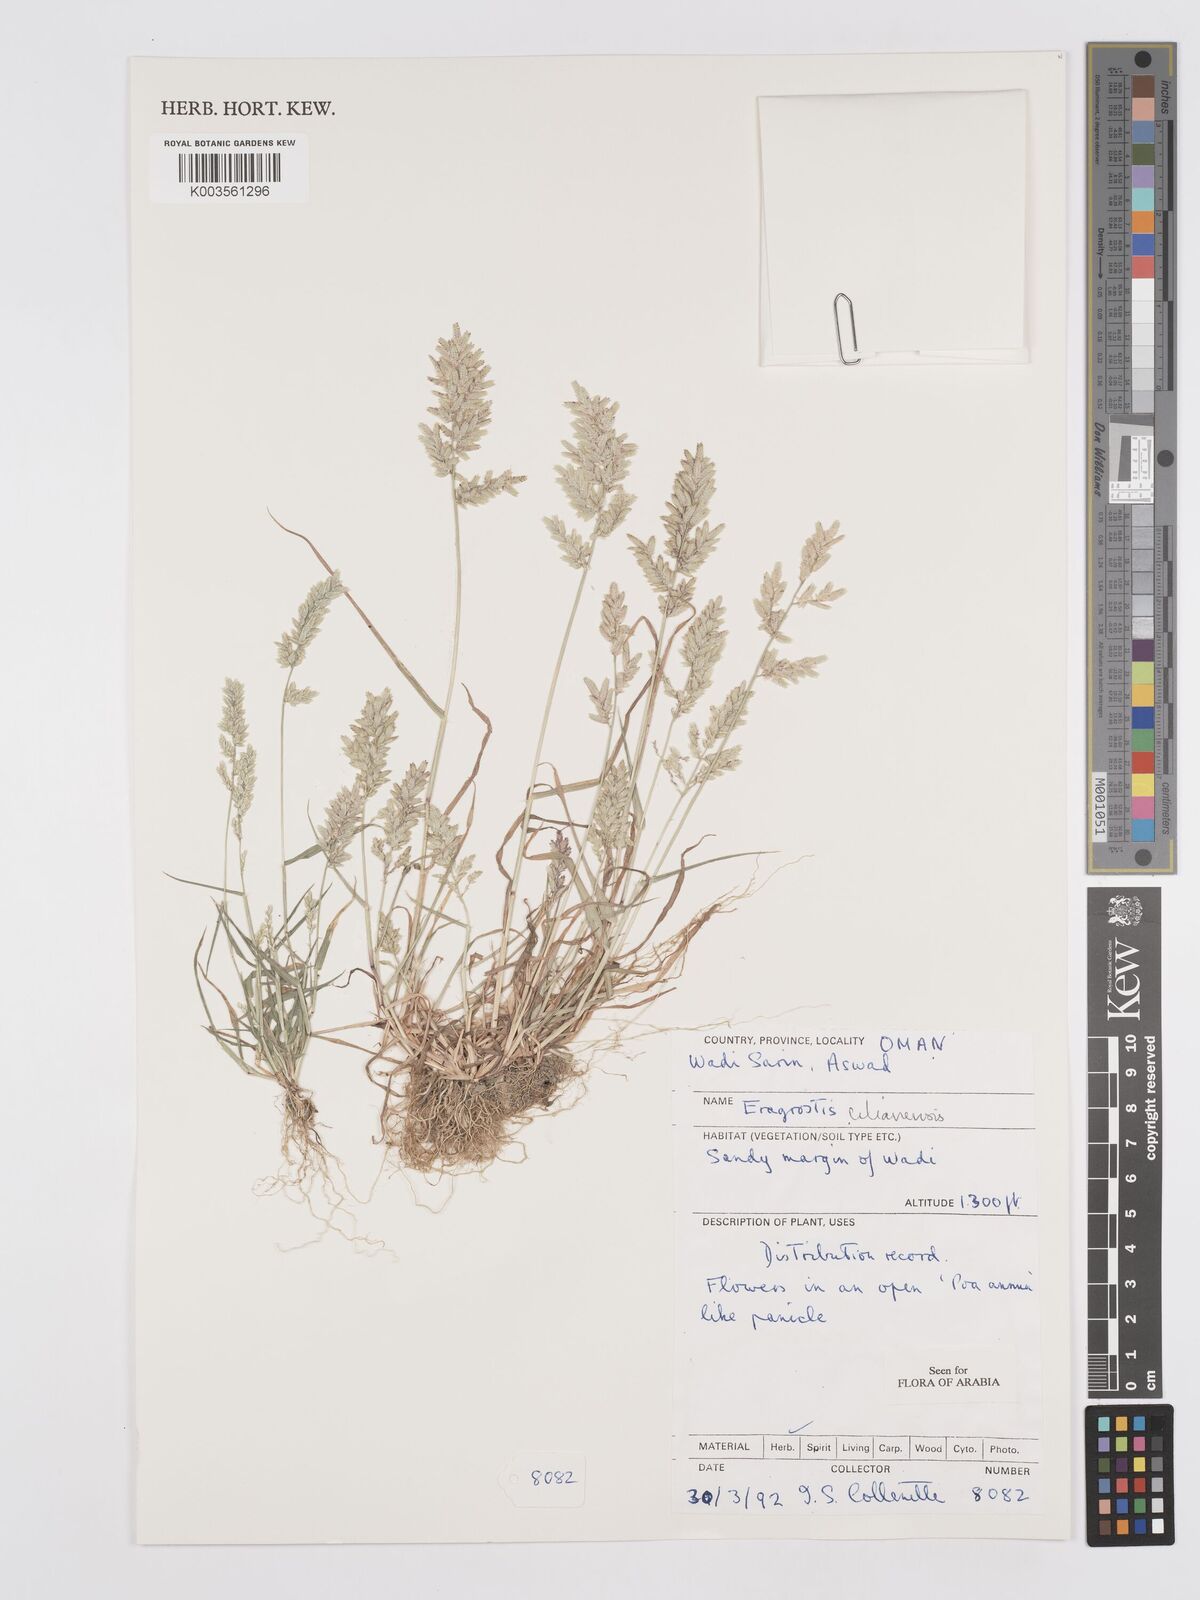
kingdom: Plantae
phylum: Tracheophyta
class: Liliopsida
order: Poales
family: Poaceae
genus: Eragrostis
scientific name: Eragrostis cilianensis
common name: Stinkgrass
